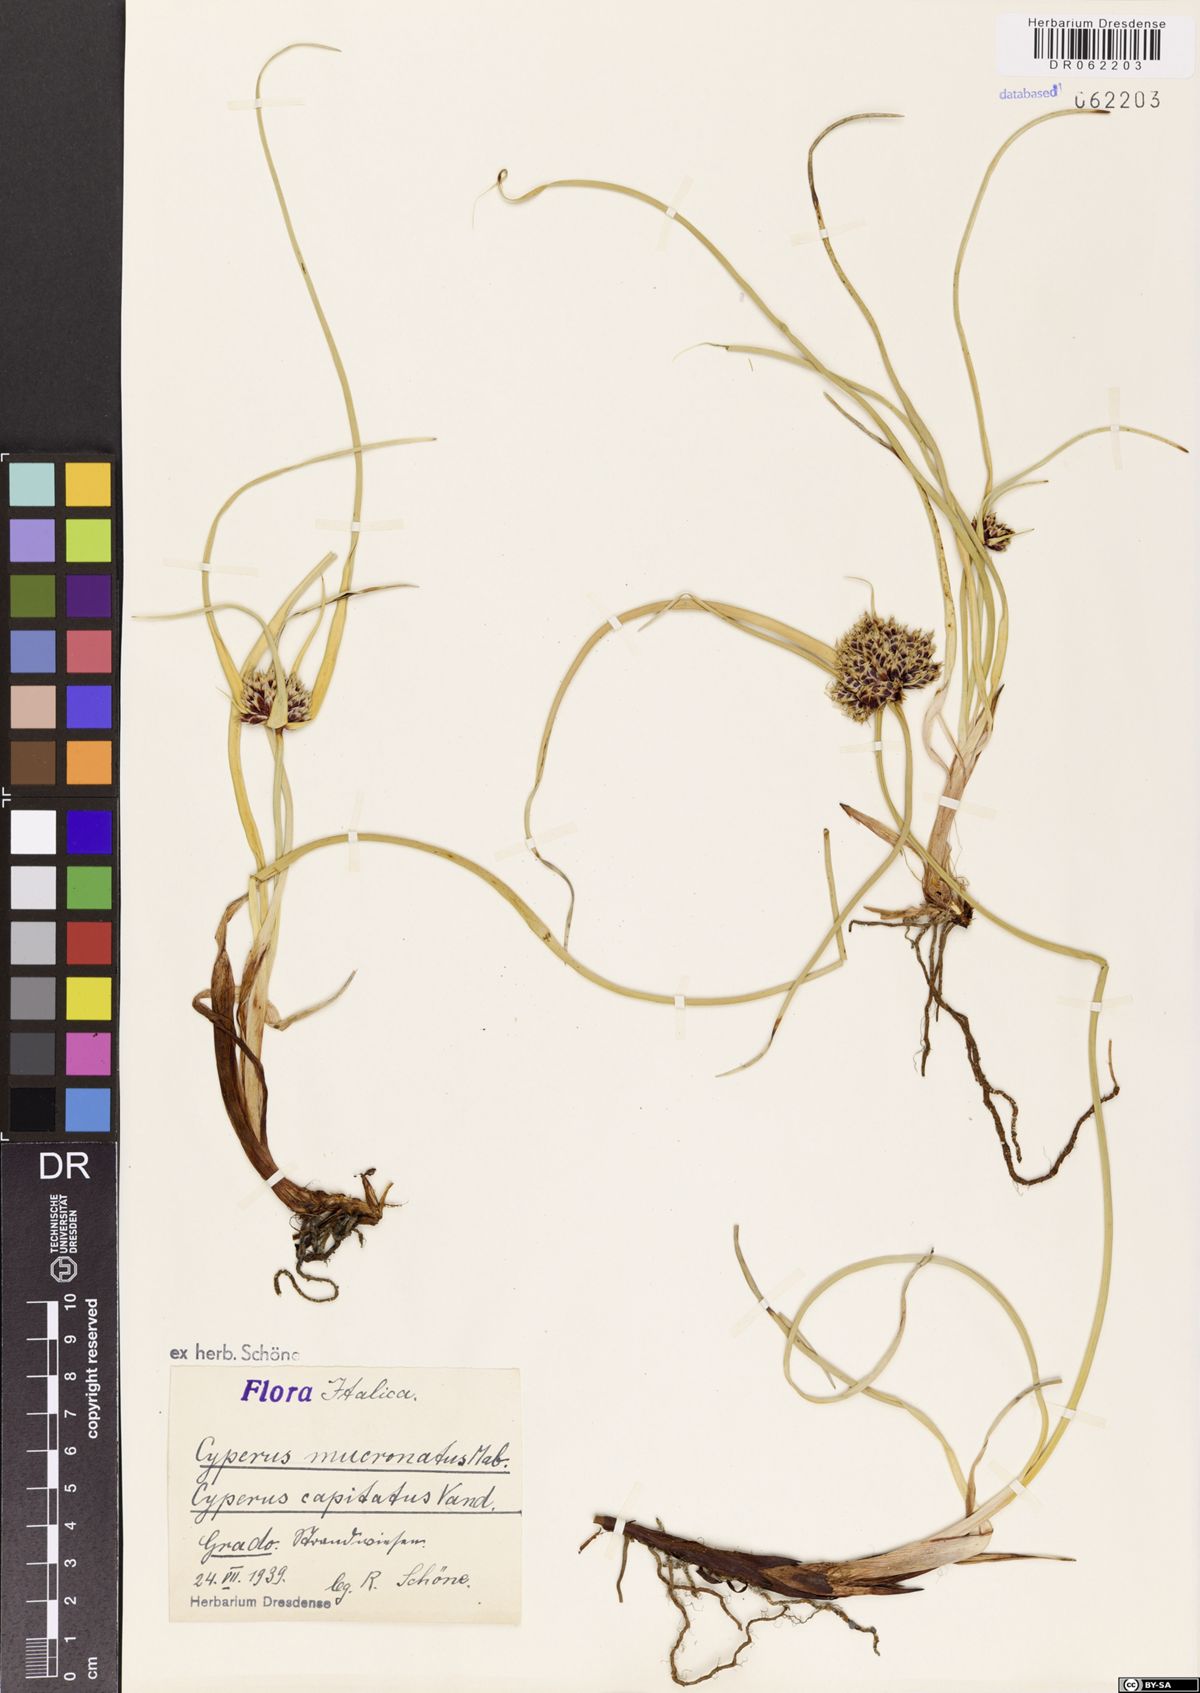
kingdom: Plantae
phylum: Tracheophyta
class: Liliopsida
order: Poales
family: Cyperaceae
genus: Cyperus
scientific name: Cyperus capitatus
